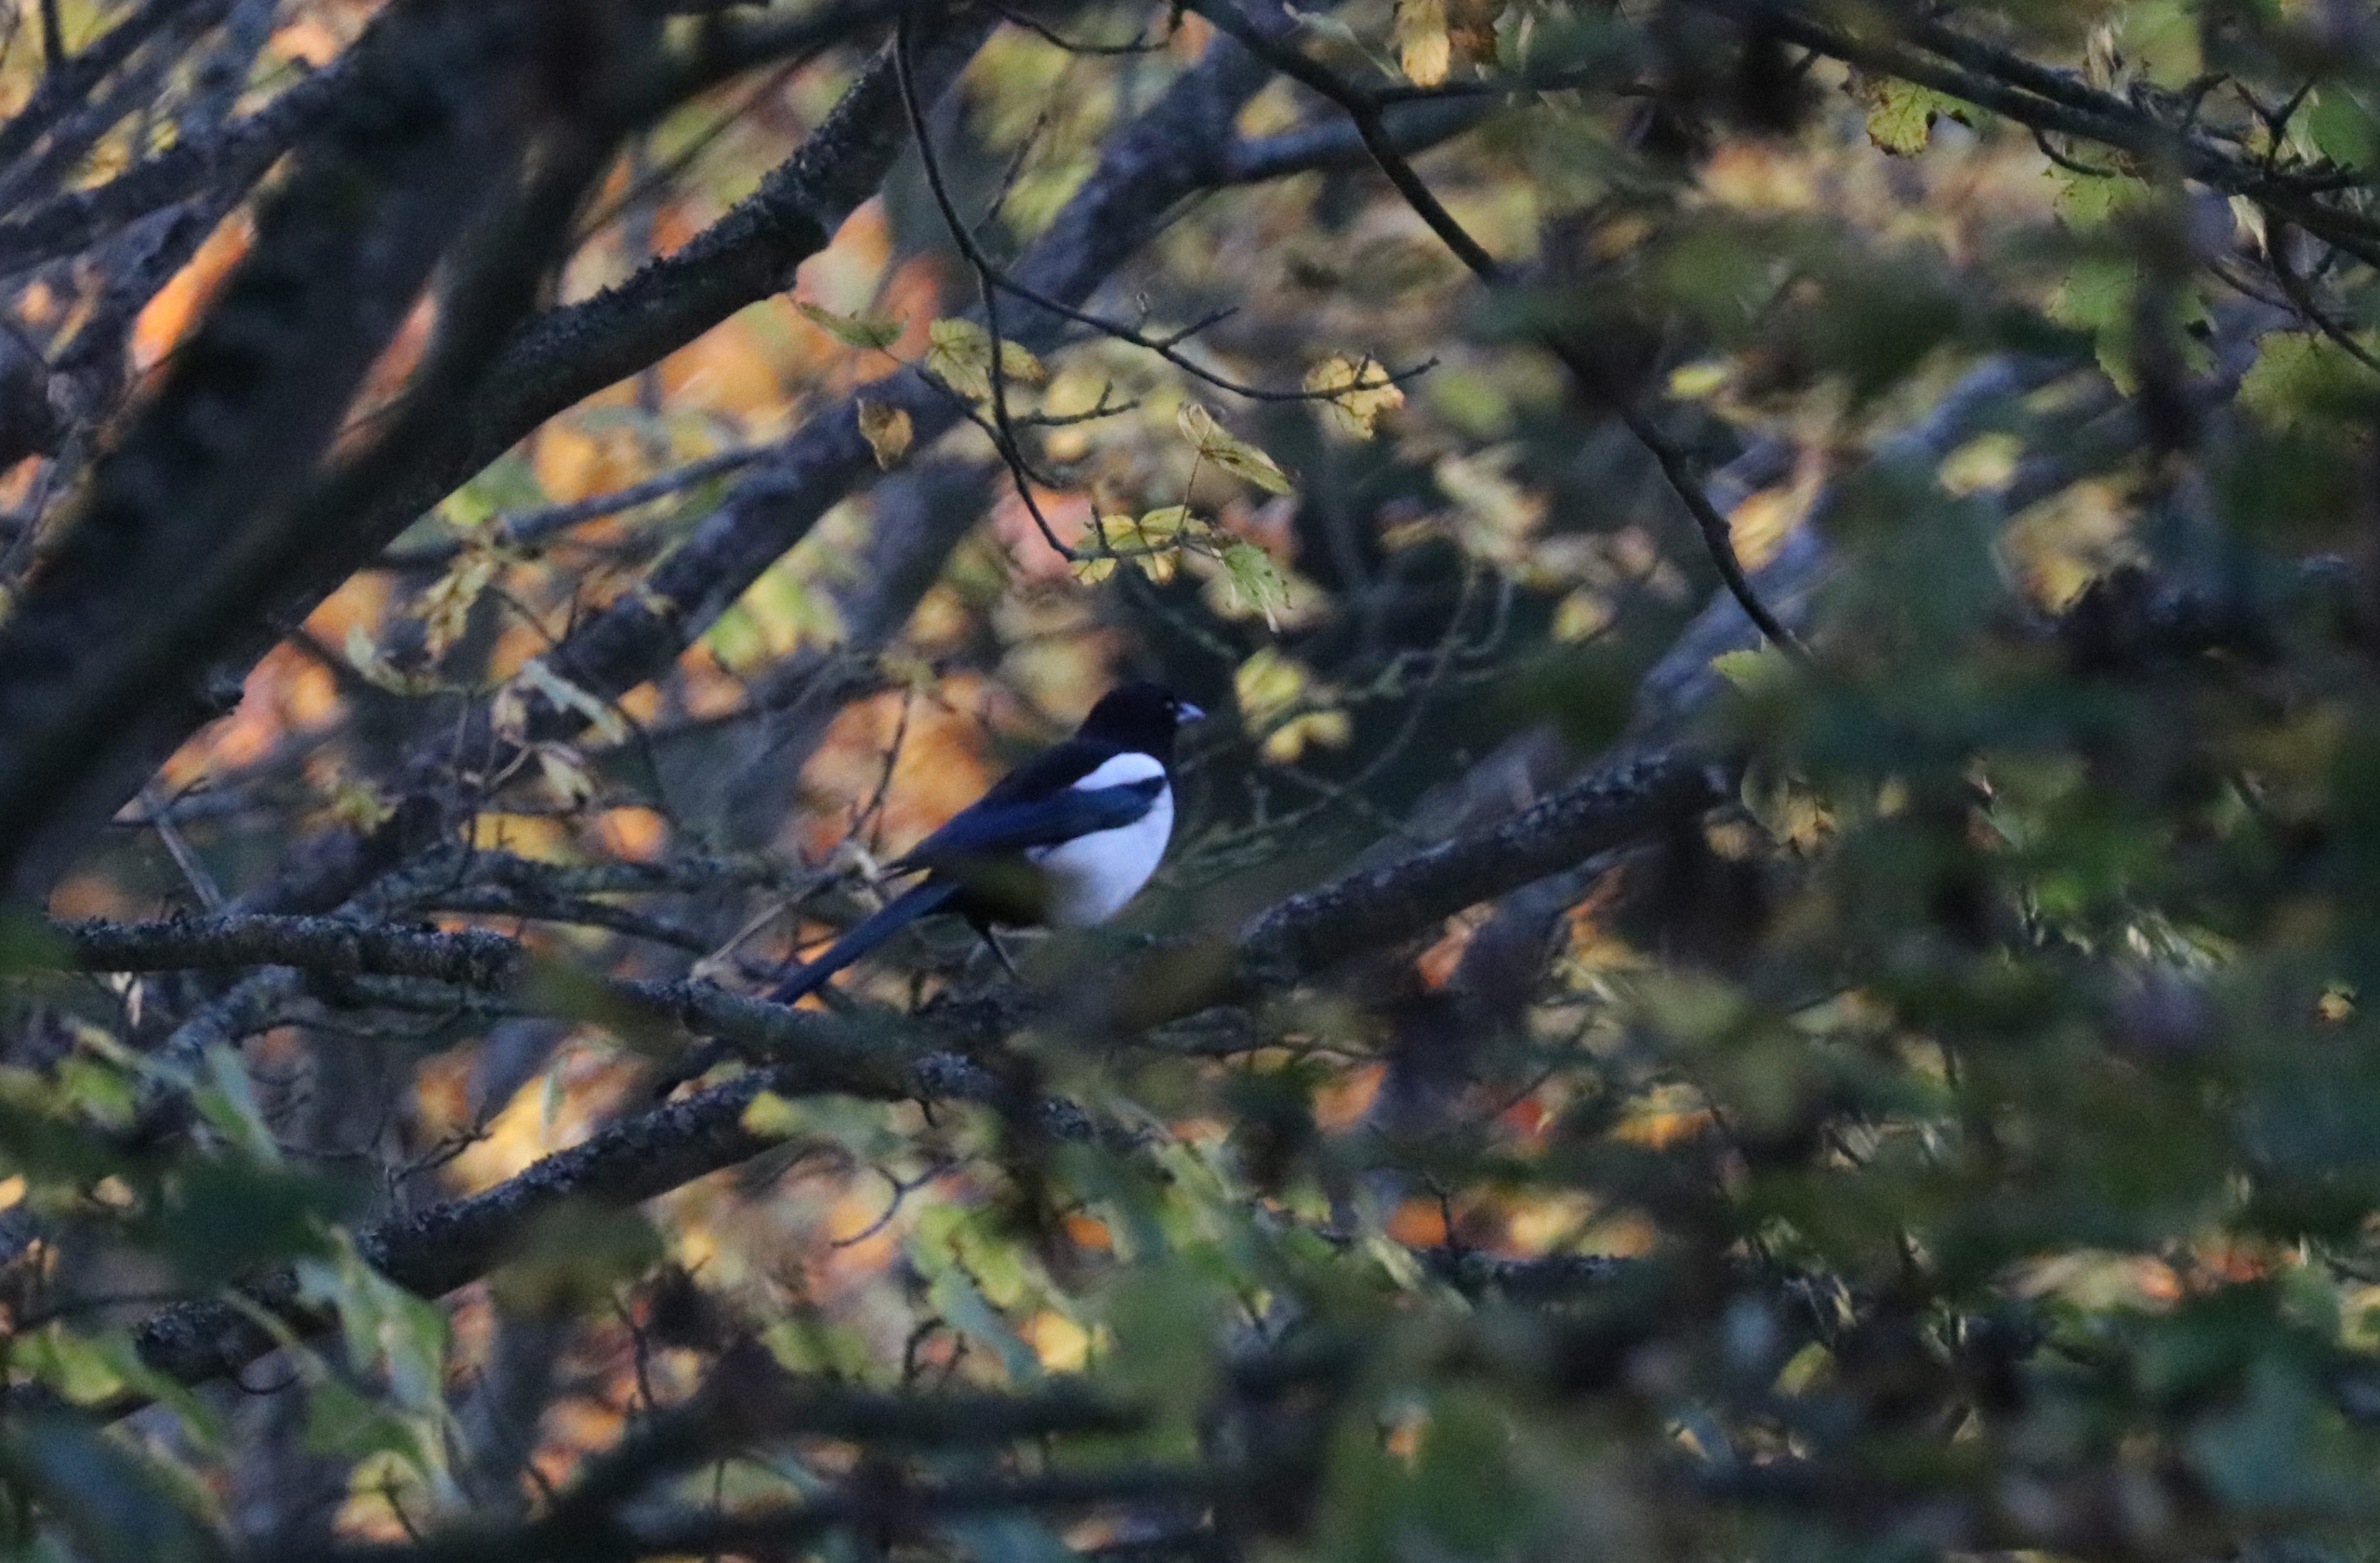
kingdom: Animalia
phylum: Chordata
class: Aves
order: Passeriformes
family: Corvidae
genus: Pica
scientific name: Pica pica
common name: Husskade
